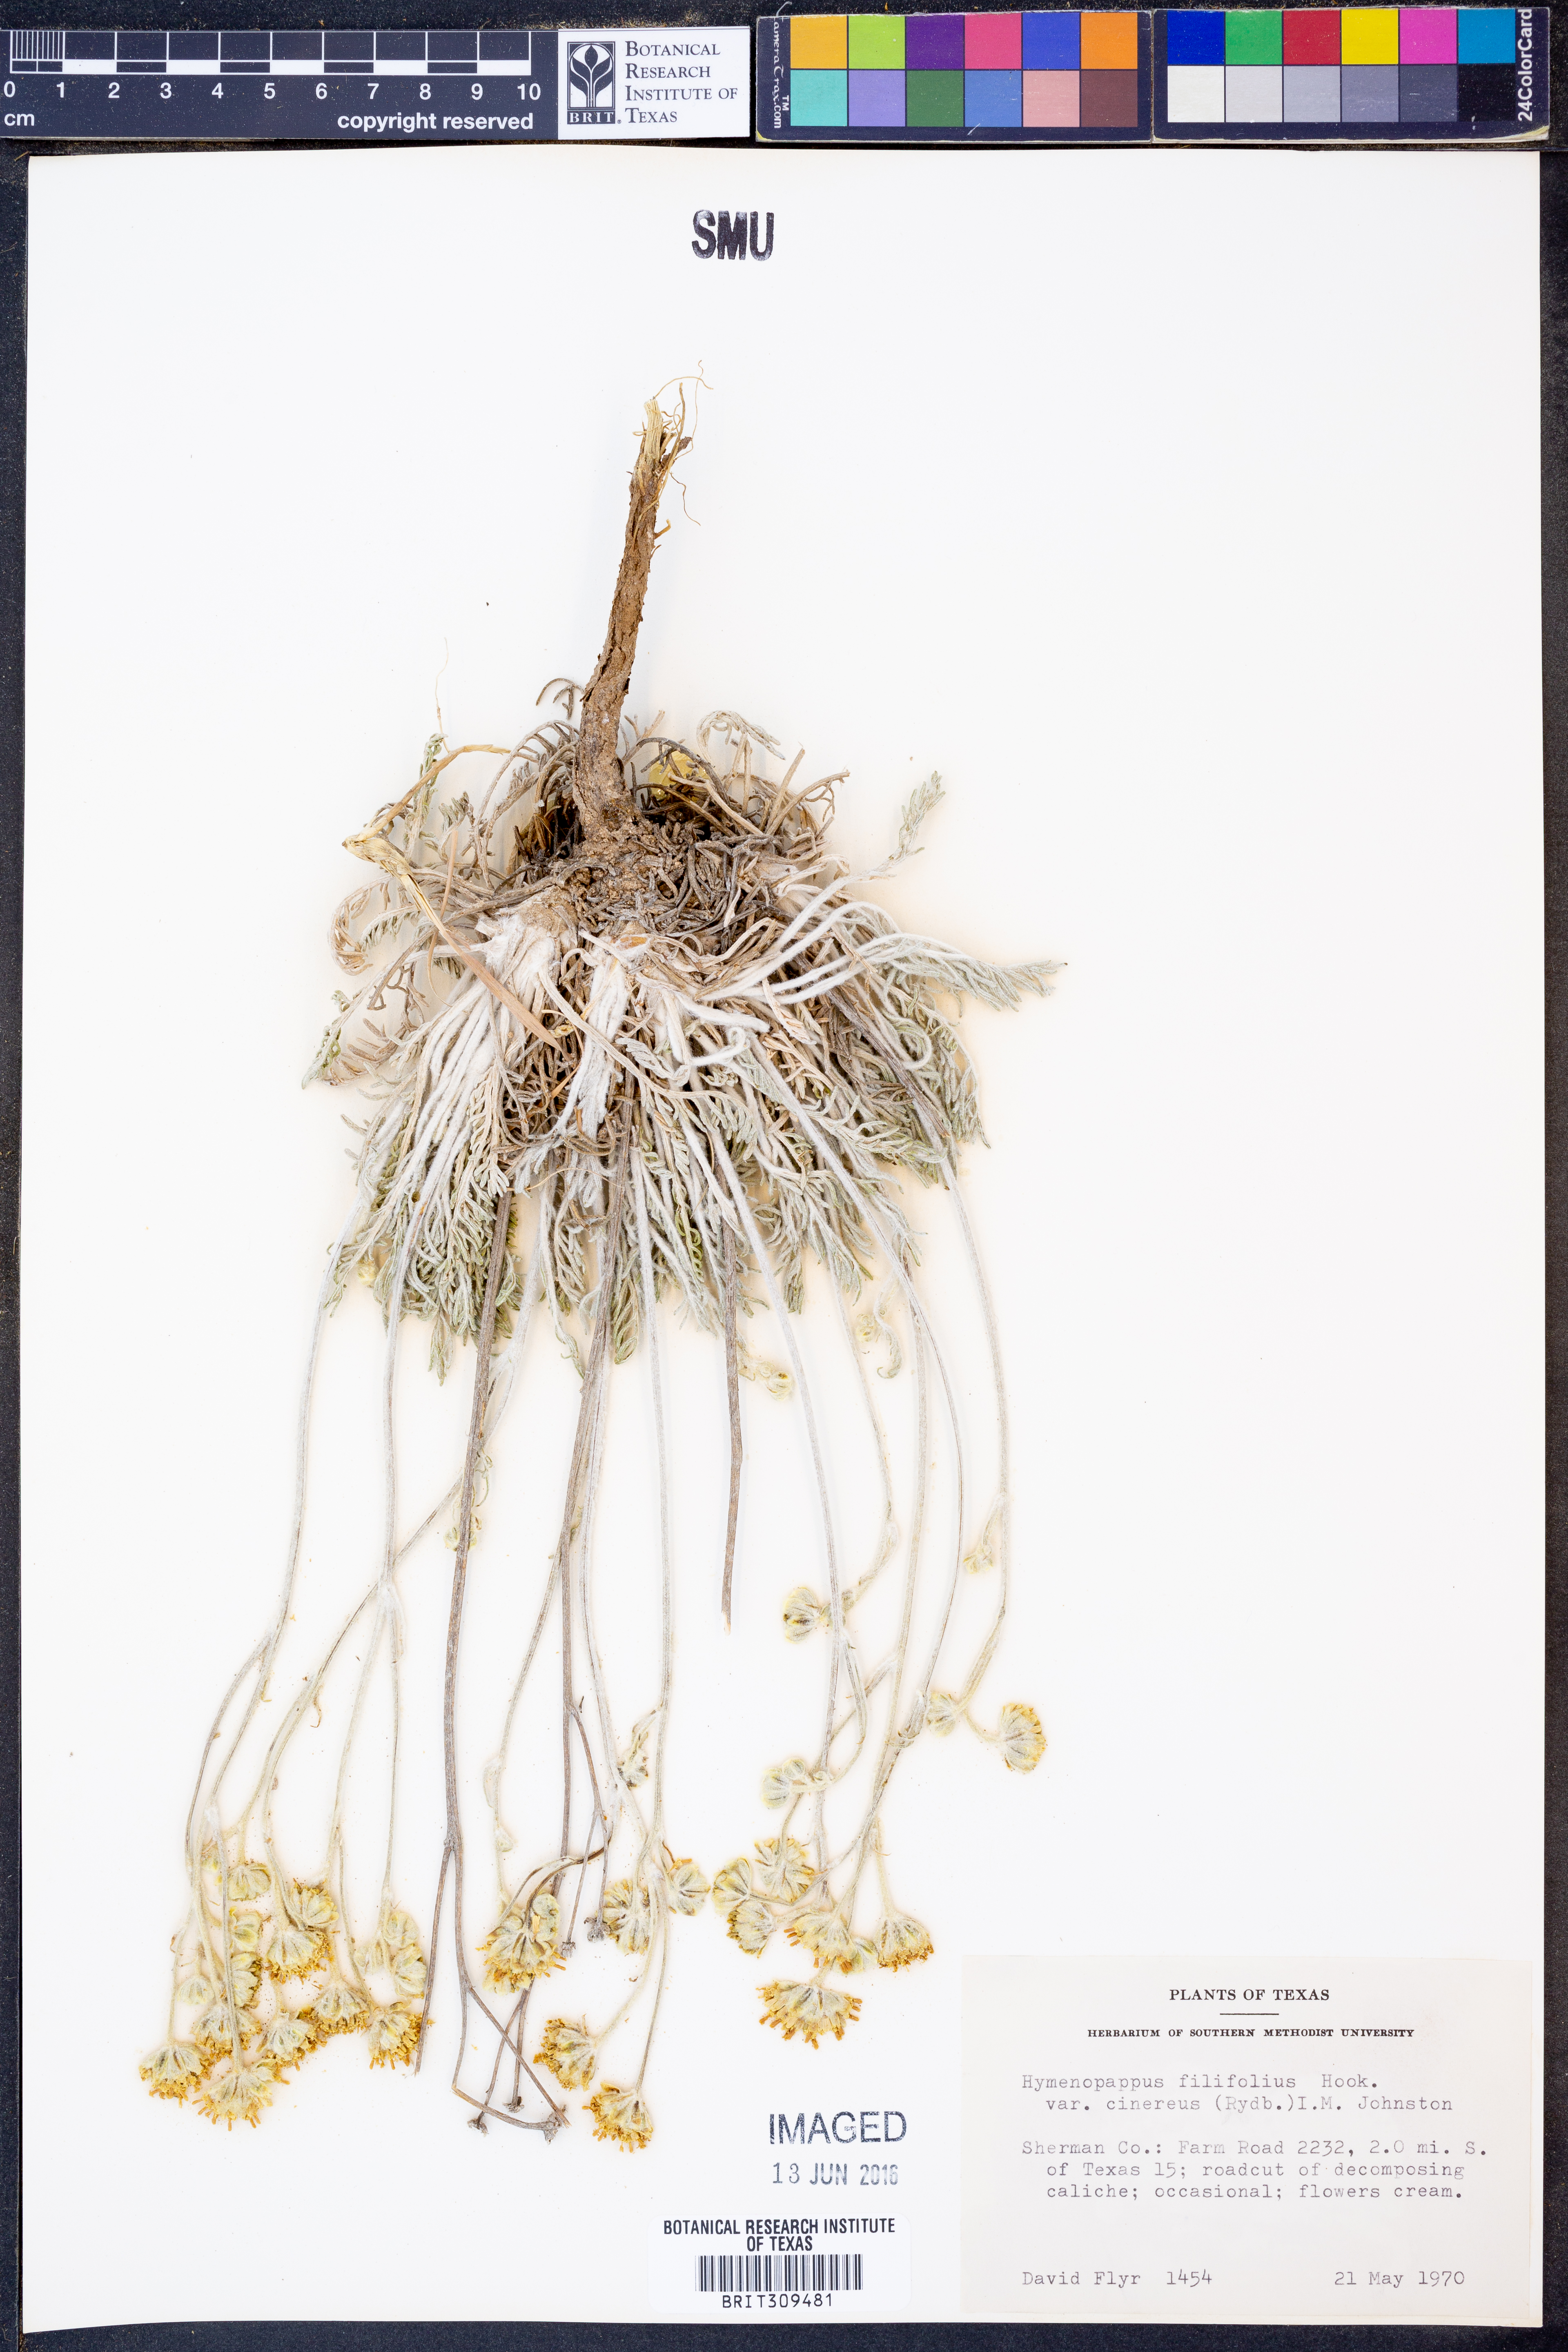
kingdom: Plantae
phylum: Tracheophyta
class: Magnoliopsida
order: Asterales
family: Asteraceae
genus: Hymenopappus
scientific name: Hymenopappus filifolius
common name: Columbia cutleaf
